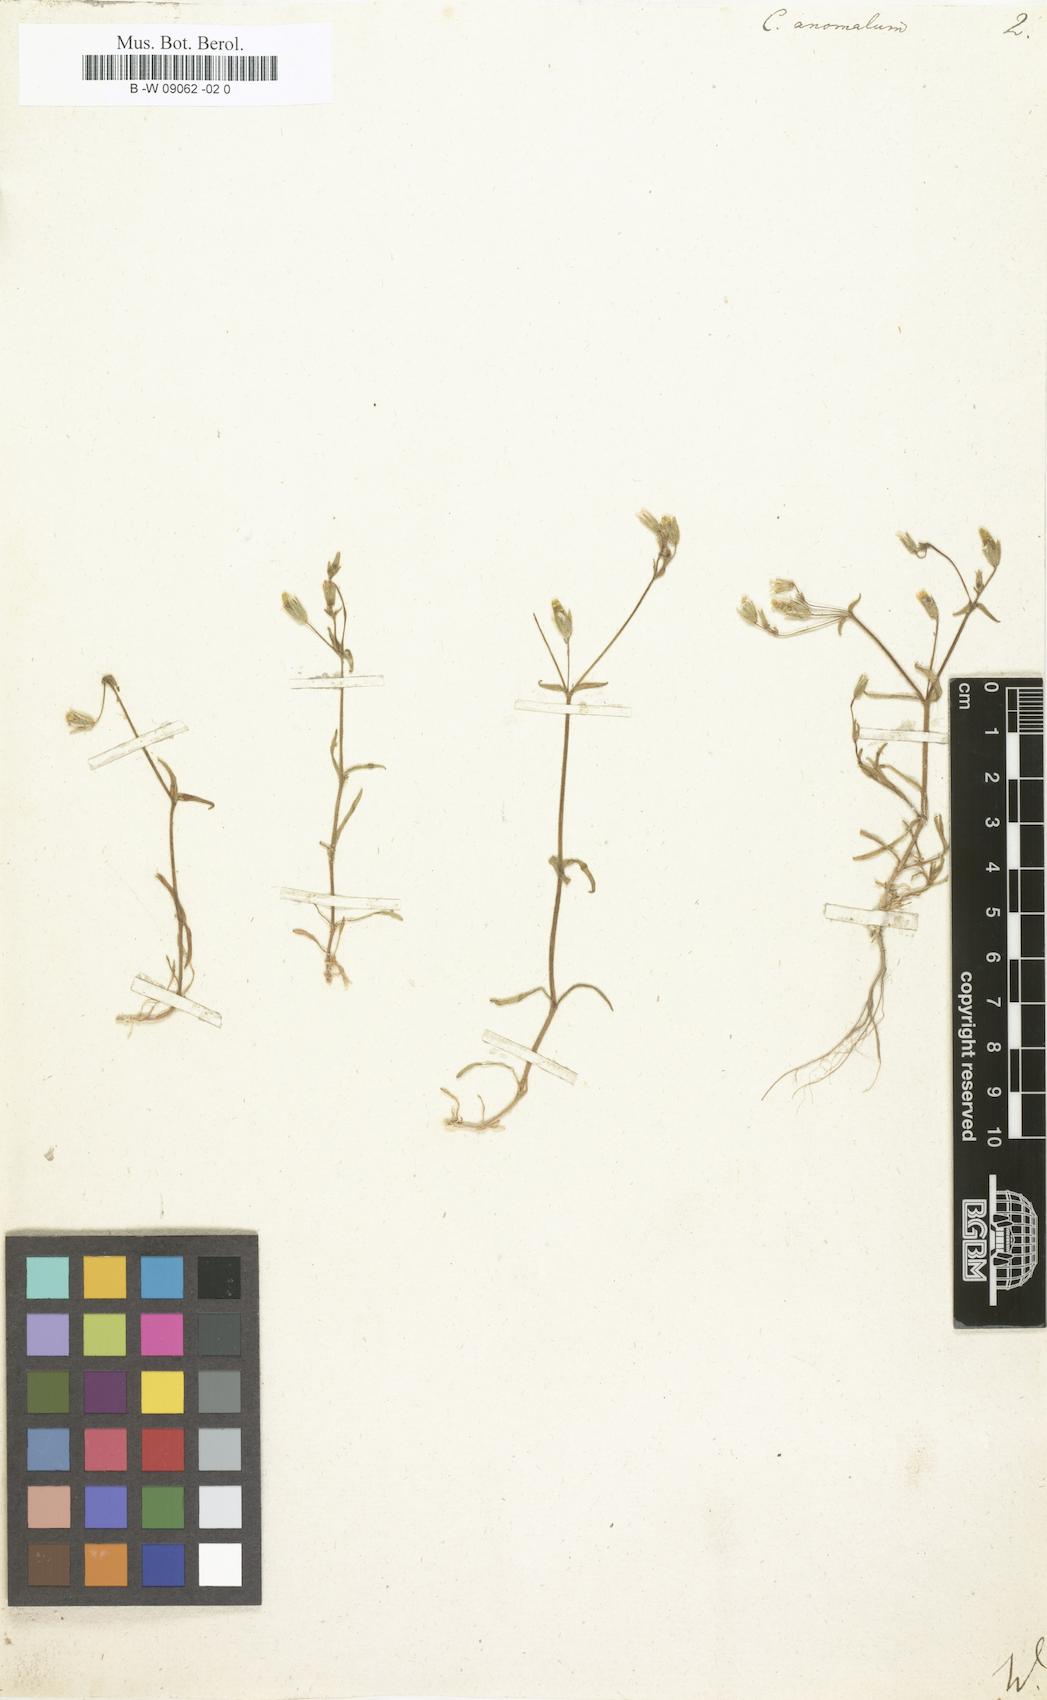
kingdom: Plantae
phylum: Tracheophyta
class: Magnoliopsida
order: Caryophyllales
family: Caryophyllaceae
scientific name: Caryophyllaceae
